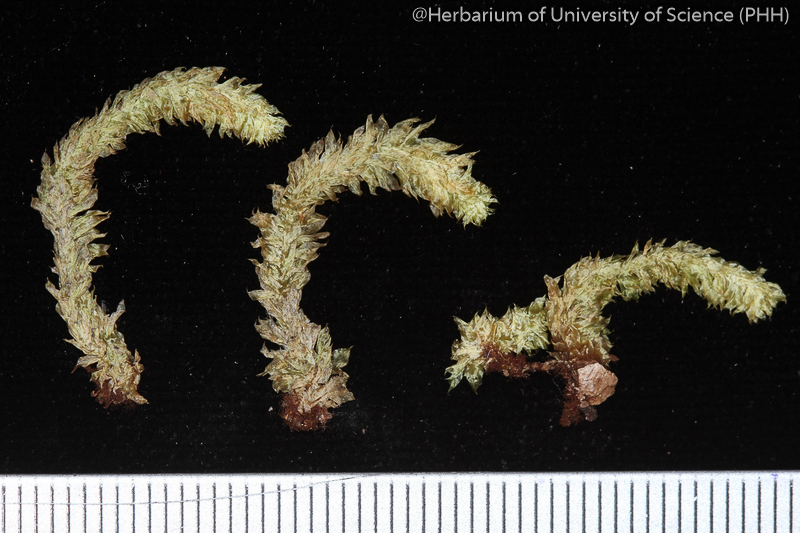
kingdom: Plantae
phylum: Bryophyta
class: Bryopsida
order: Ptychomniales
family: Ptychomniaceae
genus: Garovaglia
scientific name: Garovaglia powellii
